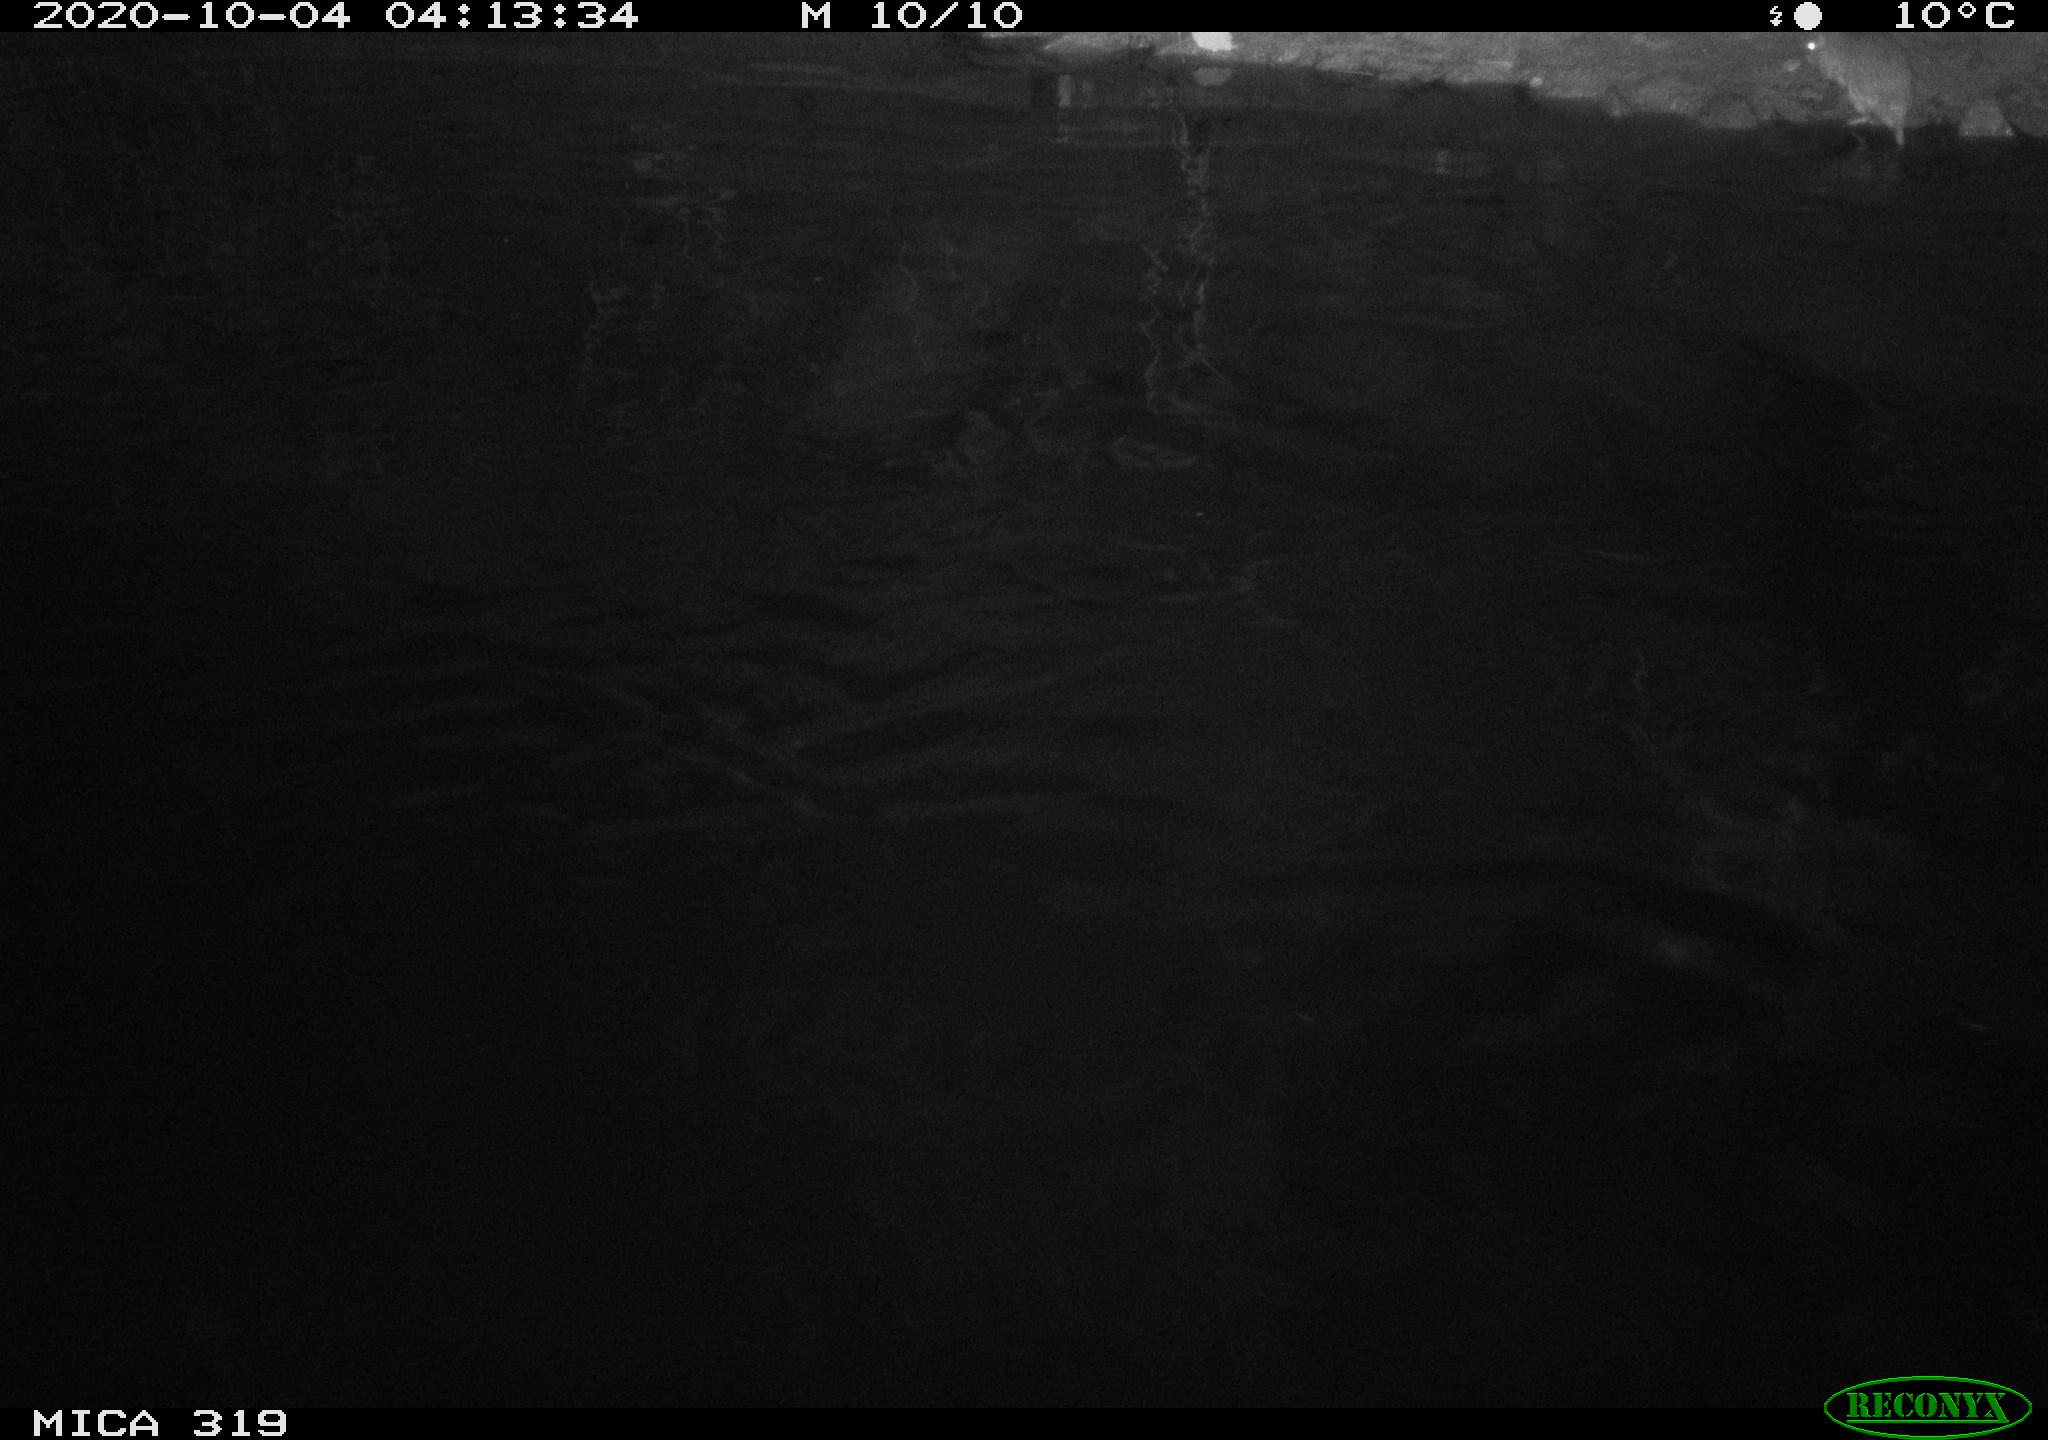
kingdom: Animalia
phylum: Chordata
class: Mammalia
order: Rodentia
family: Muridae
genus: Rattus
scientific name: Rattus norvegicus
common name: Brown rat
